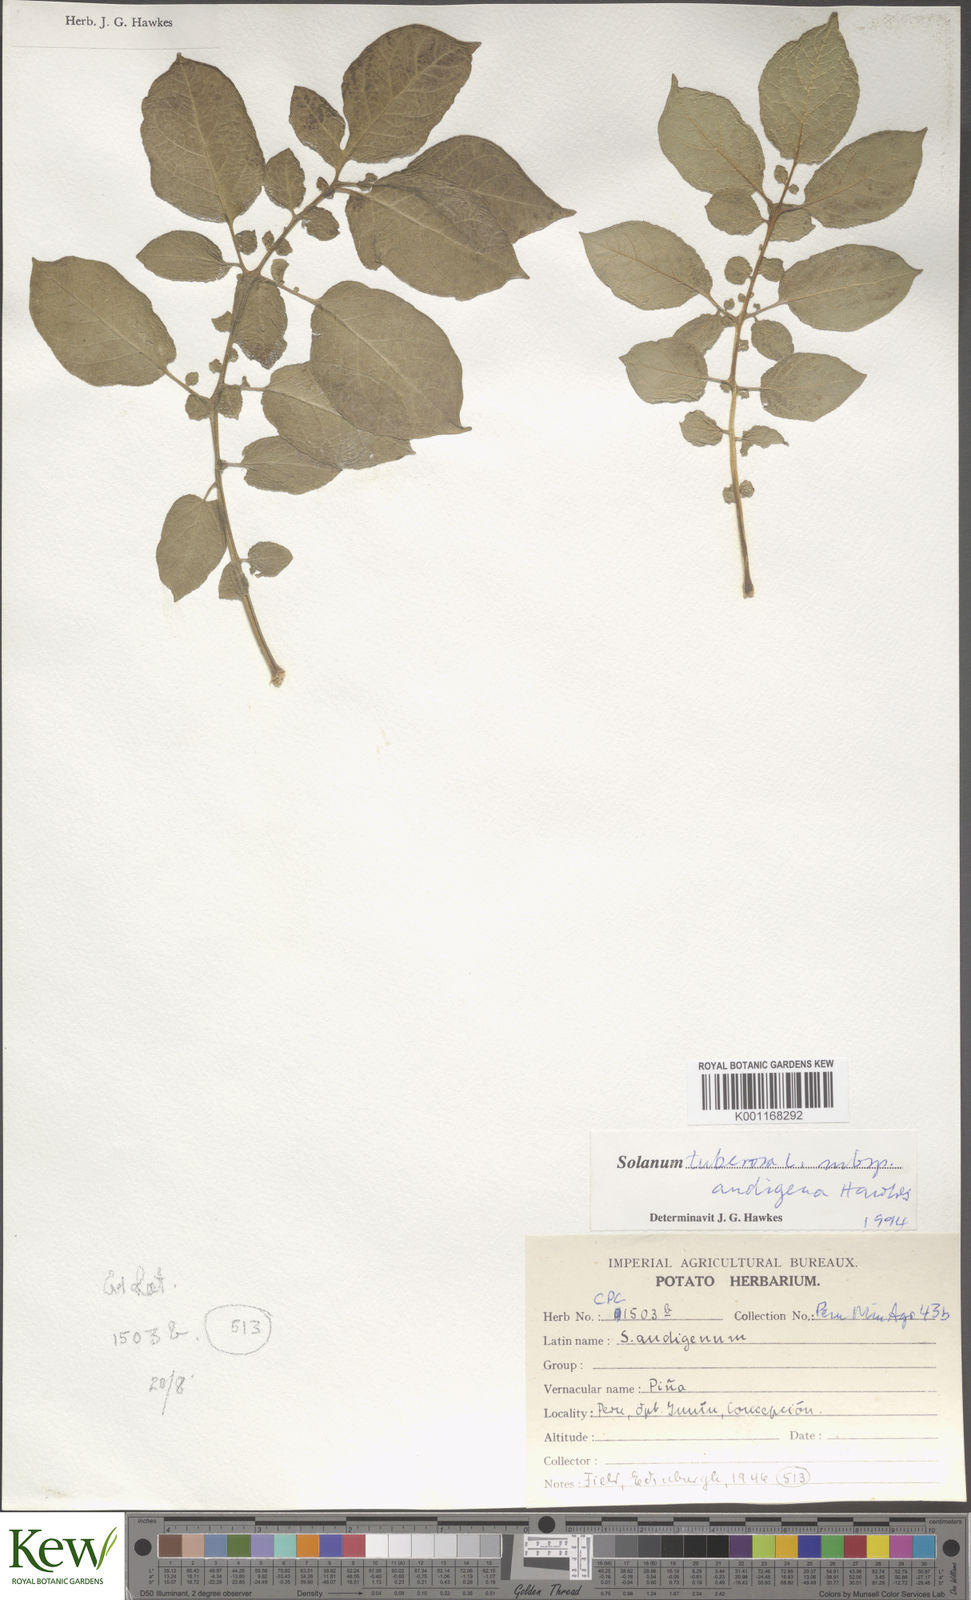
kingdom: Plantae
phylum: Tracheophyta
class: Magnoliopsida
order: Solanales
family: Solanaceae
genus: Solanum
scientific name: Solanum tuberosum
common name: Potato
